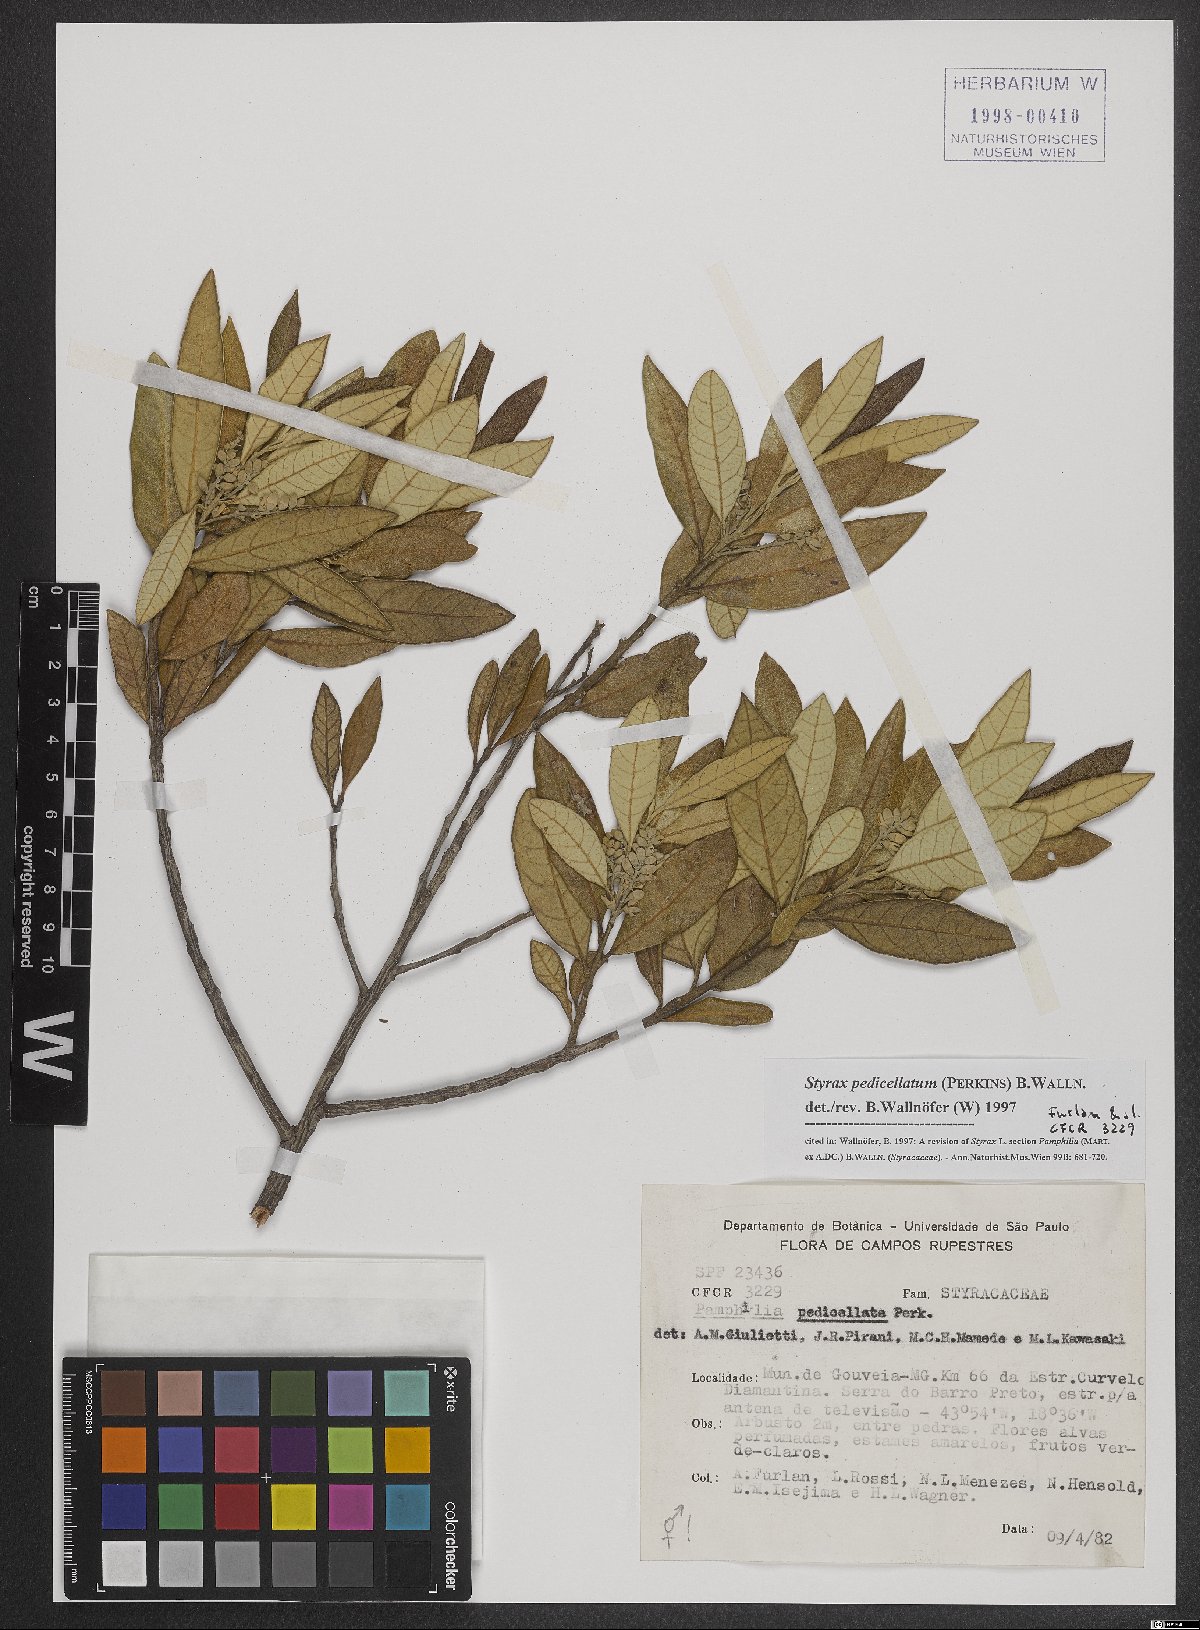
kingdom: Plantae
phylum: Tracheophyta
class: Magnoliopsida
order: Ericales
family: Styracaceae
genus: Styrax
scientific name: Styrax pedicellatus
